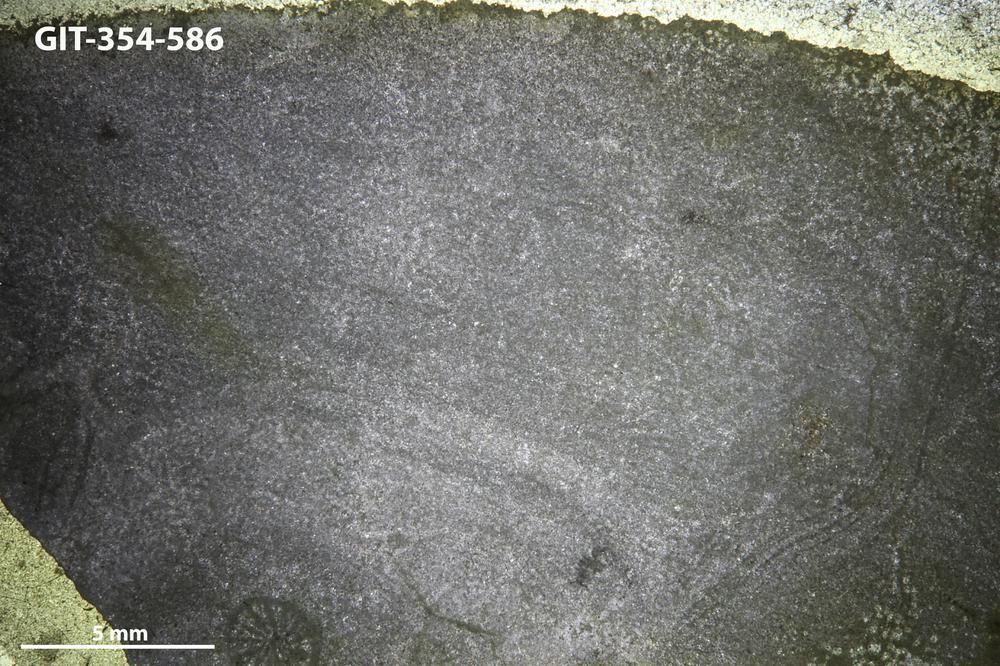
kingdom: Animalia
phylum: Porifera
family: Pseudolabechiidae
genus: Vikingia
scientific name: Vikingia
